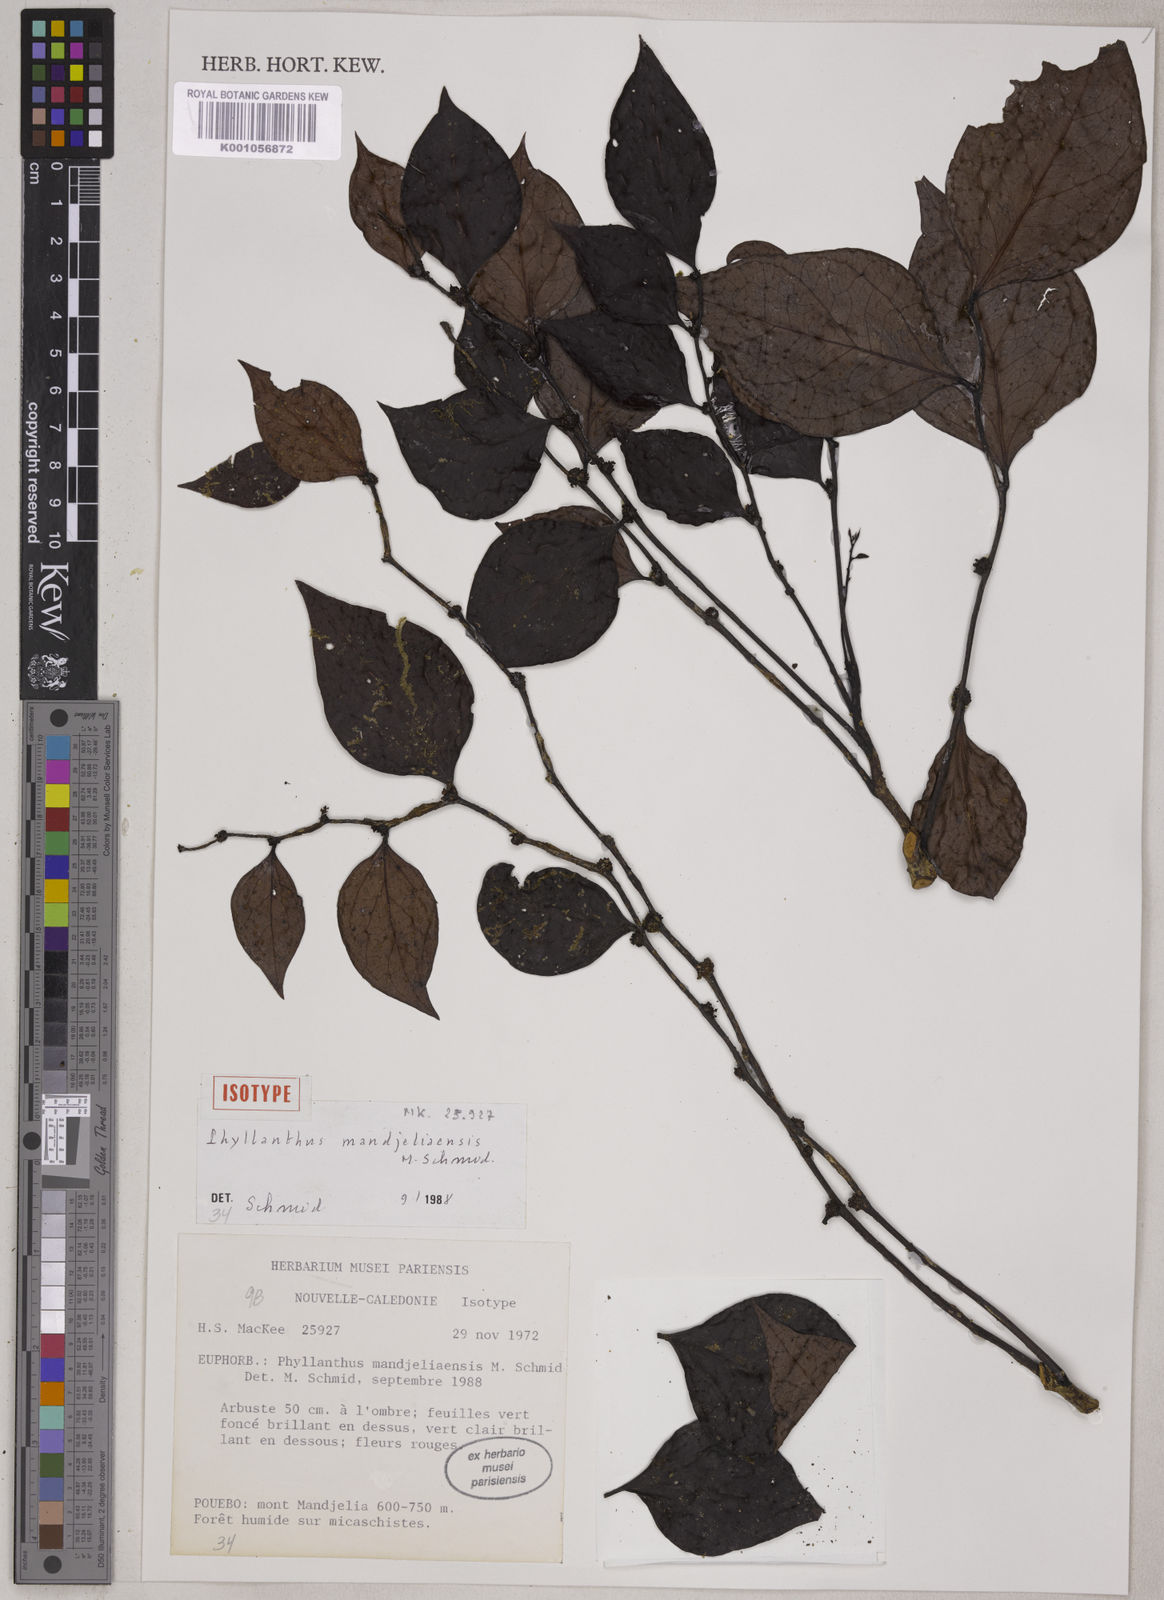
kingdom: Plantae
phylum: Tracheophyta
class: Magnoliopsida
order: Malpighiales
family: Phyllanthaceae
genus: Phyllanthus
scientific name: Phyllanthus mandjeliaensis
